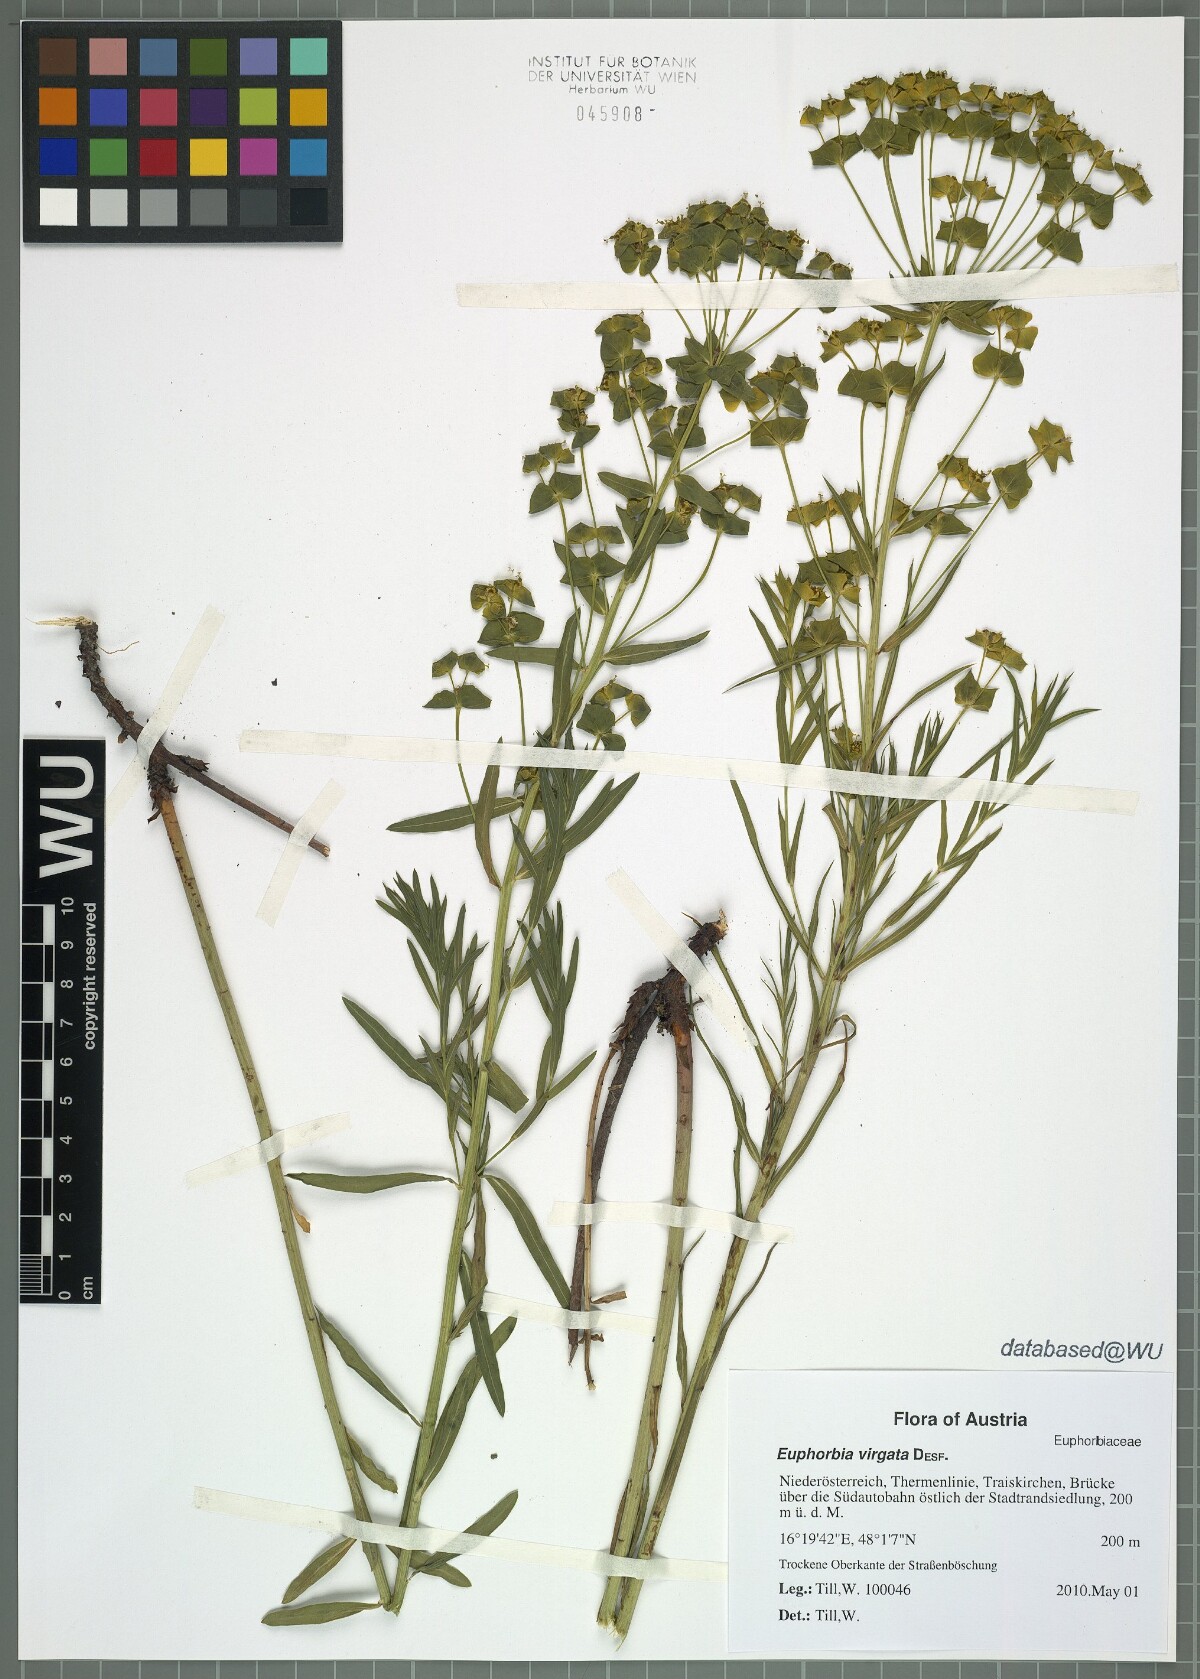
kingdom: Plantae
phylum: Tracheophyta
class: Magnoliopsida
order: Malpighiales
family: Euphorbiaceae
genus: Euphorbia
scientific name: Euphorbia virgata
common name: Leafy spurge
